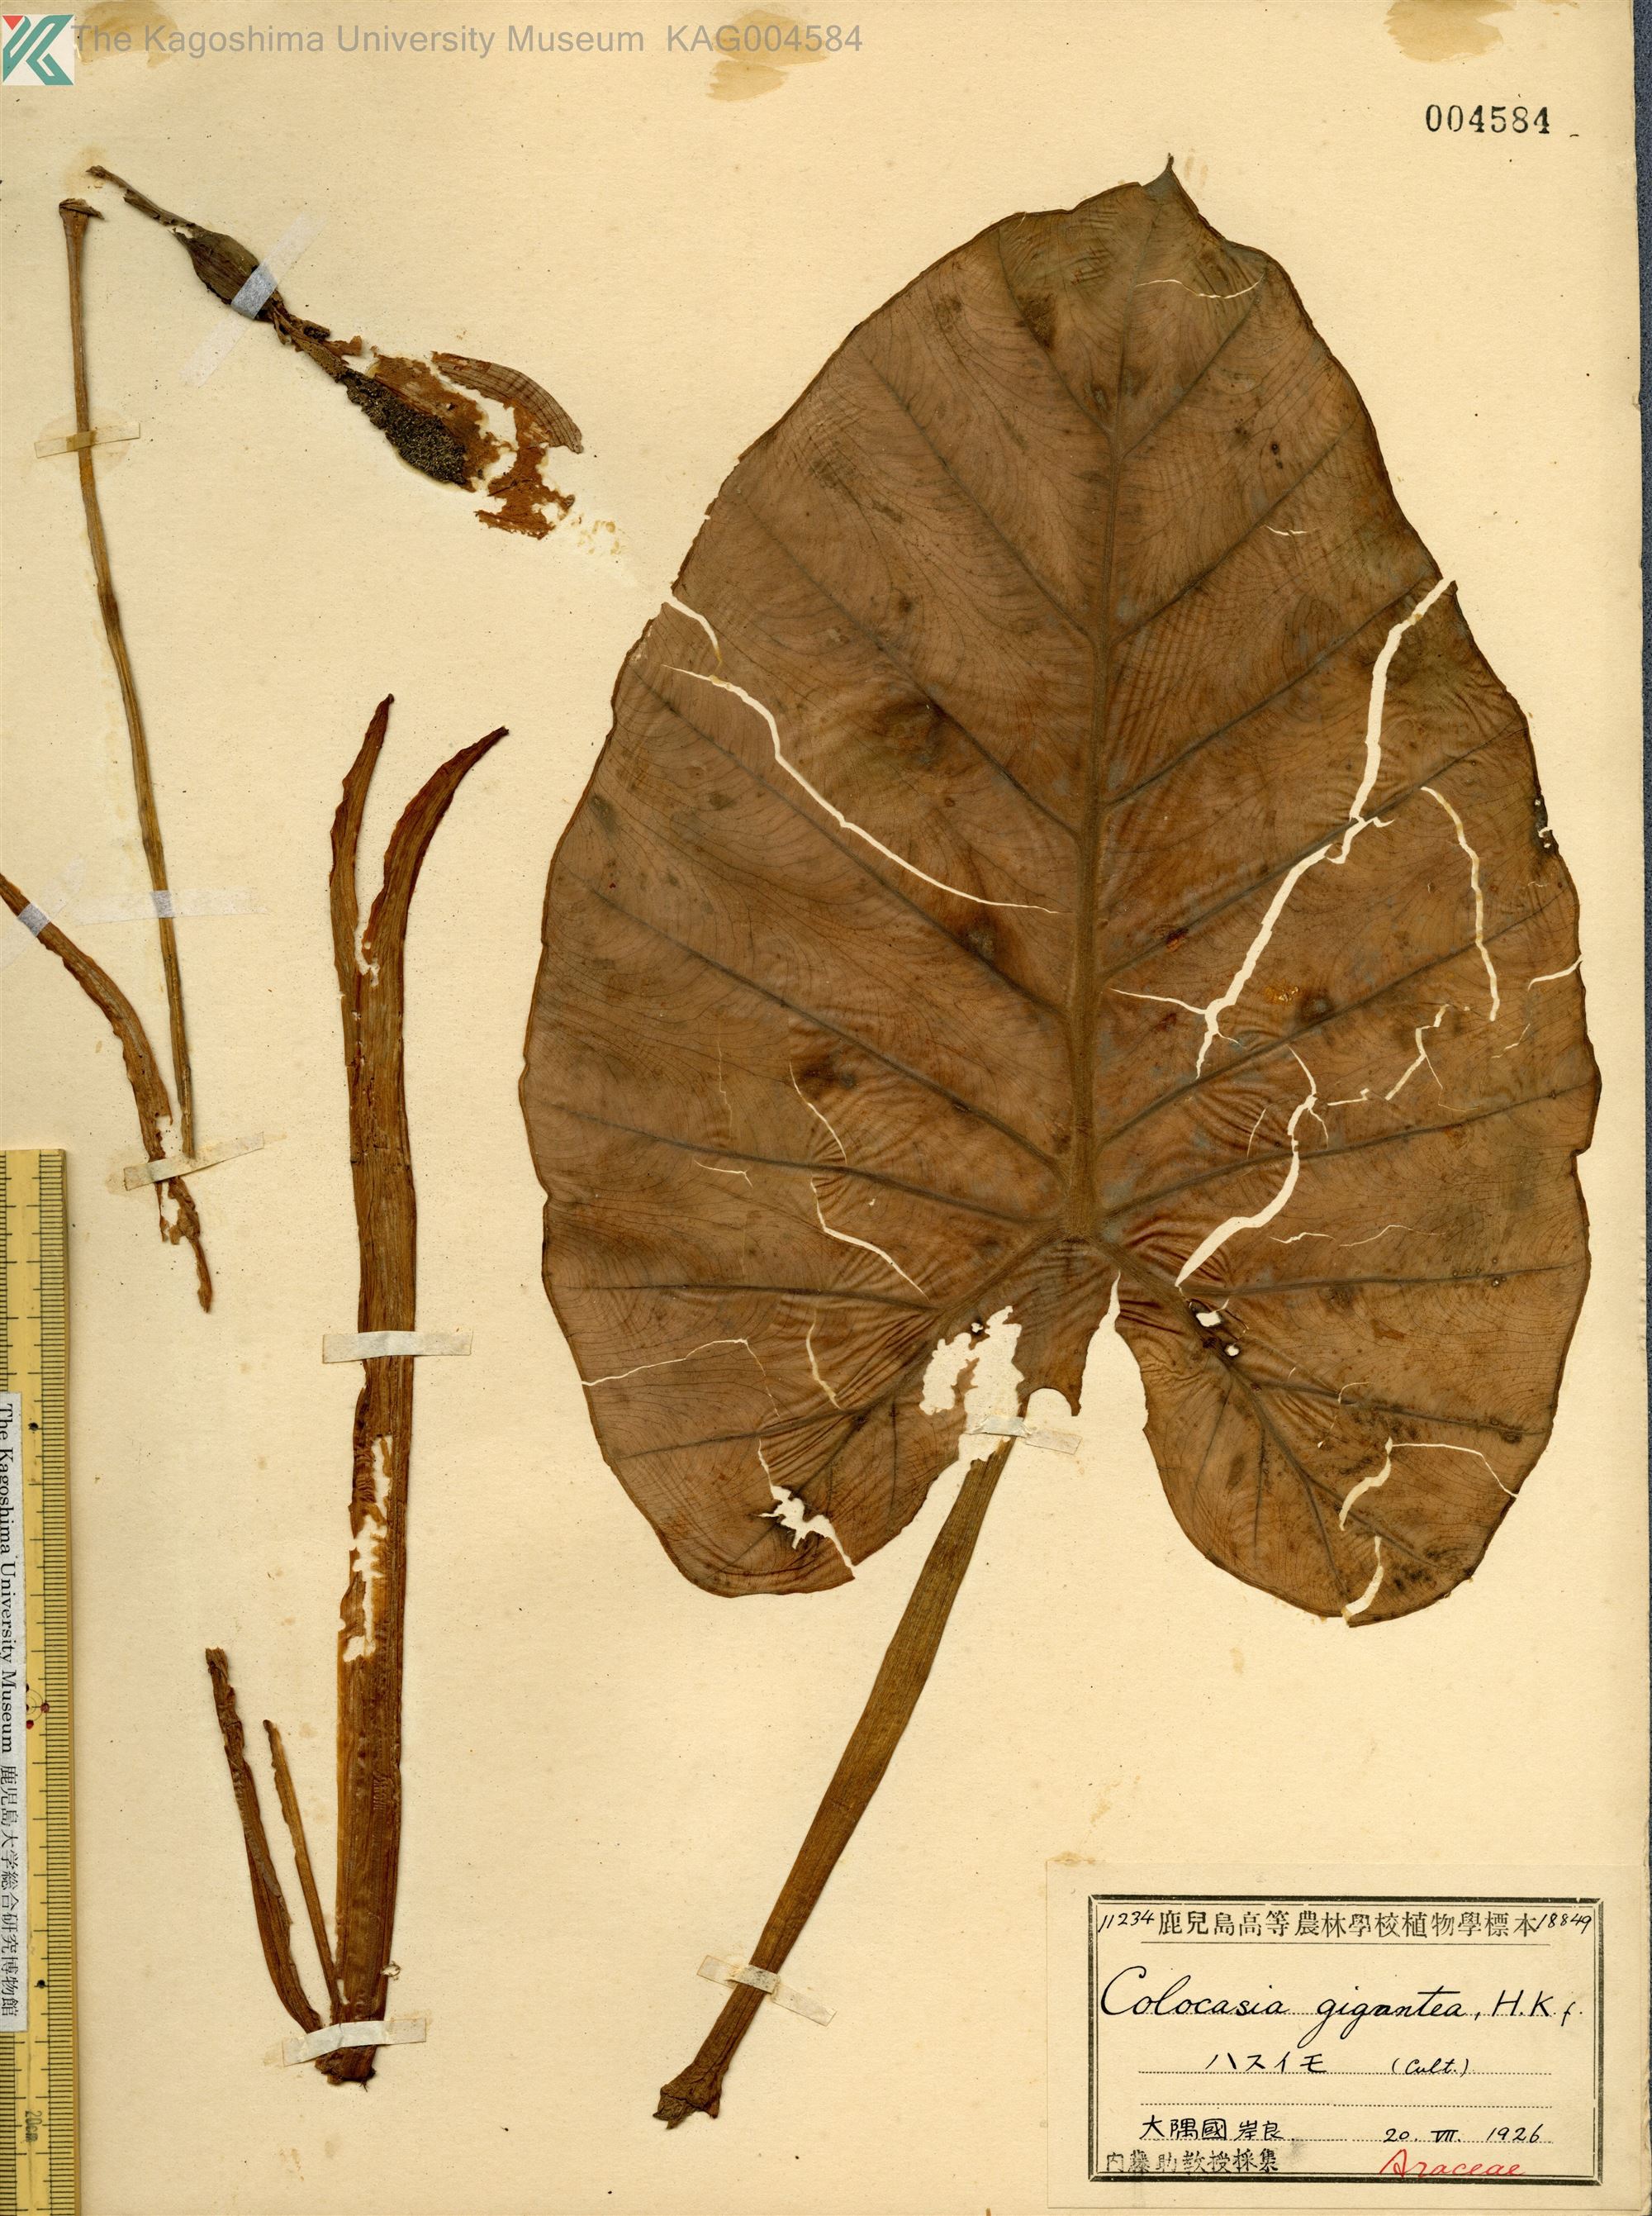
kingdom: Plantae
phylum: Tracheophyta
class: Liliopsida
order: Alismatales
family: Araceae
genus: Leucocasia
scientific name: Leucocasia gigantea
